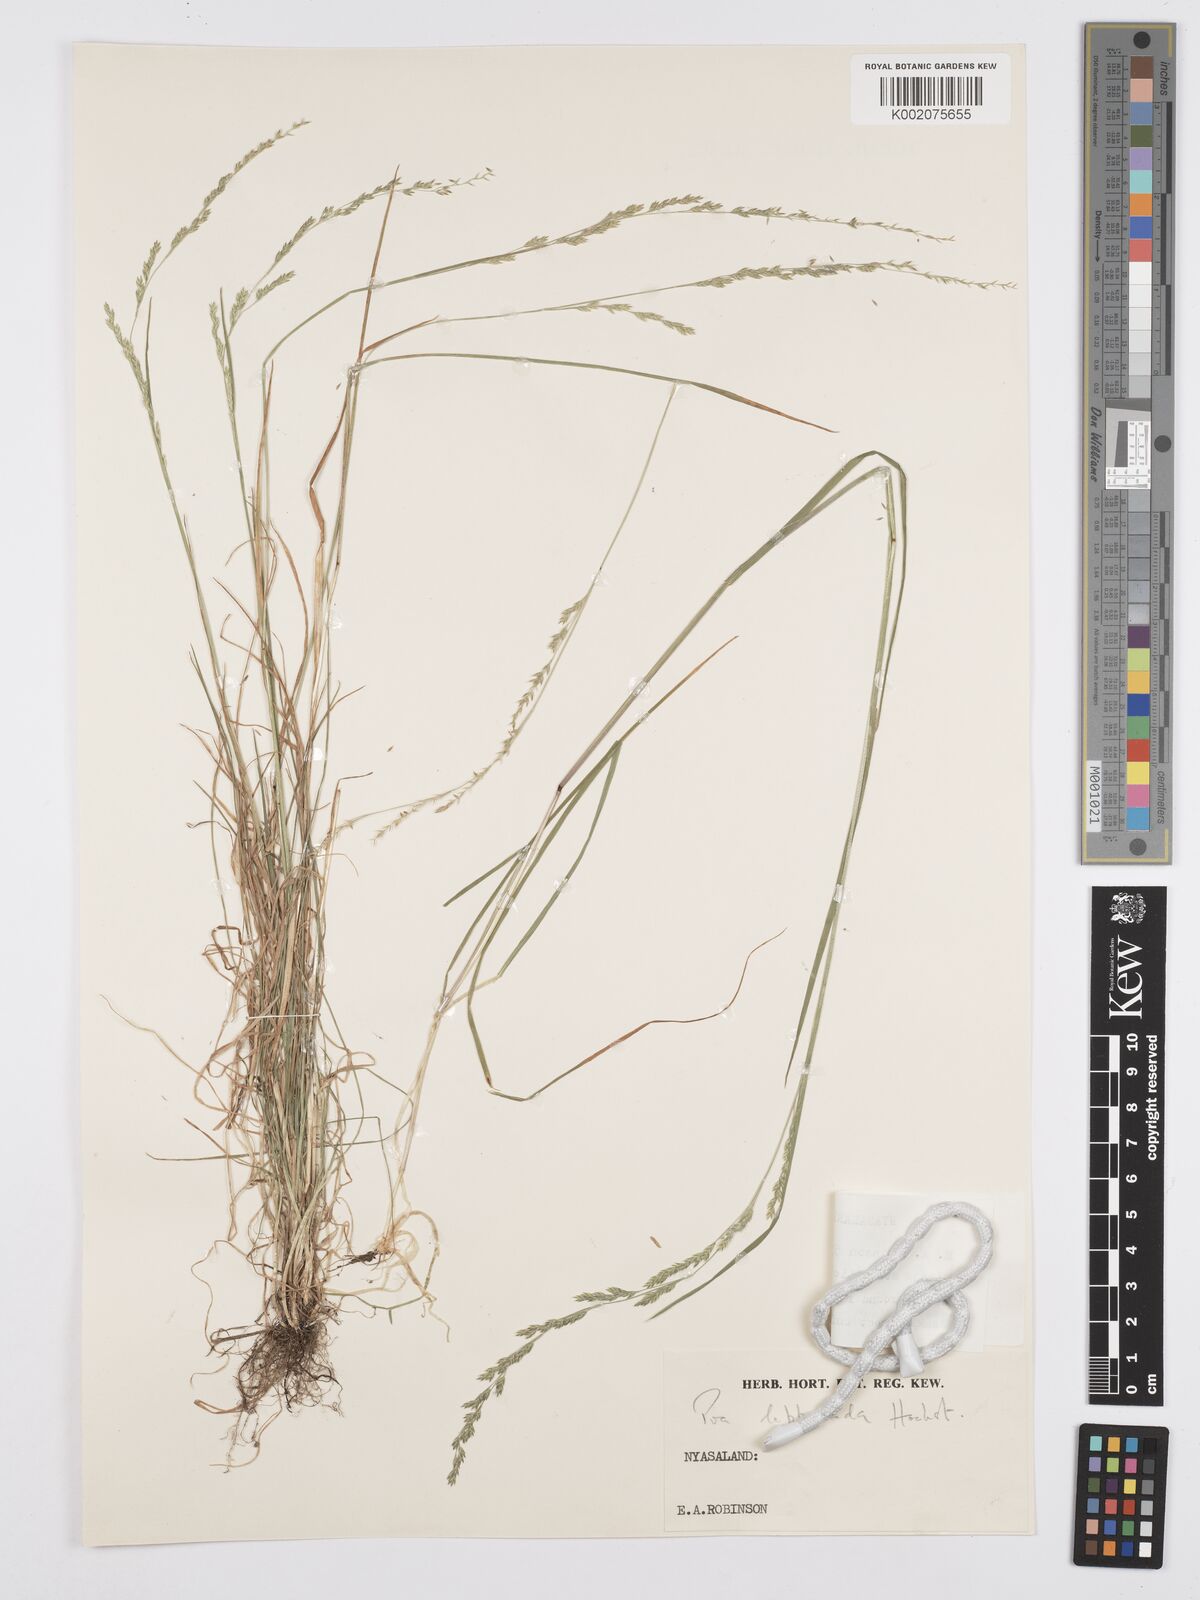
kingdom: Plantae
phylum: Tracheophyta
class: Liliopsida
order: Poales
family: Poaceae
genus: Poa
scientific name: Poa leptoclada
